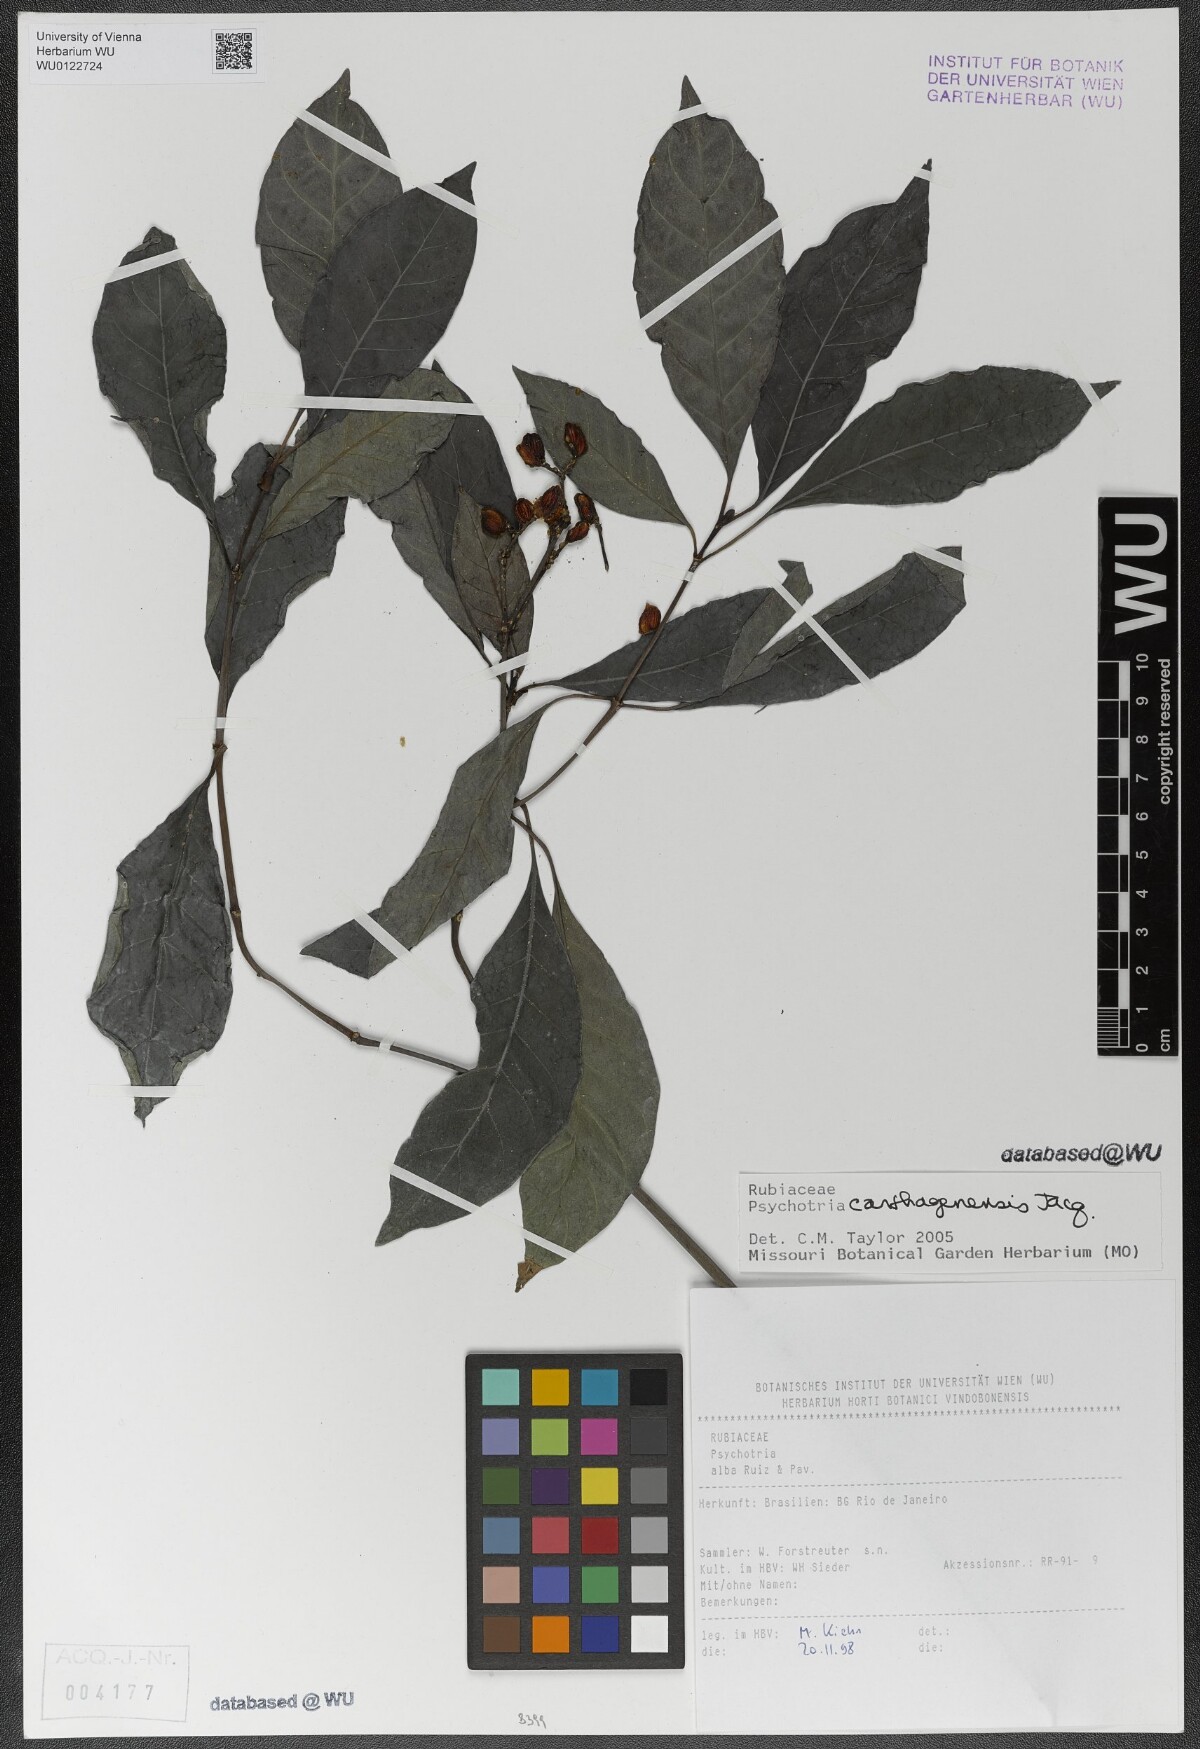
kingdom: Plantae
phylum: Tracheophyta
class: Magnoliopsida
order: Gentianales
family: Rubiaceae
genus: Psychotria
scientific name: Psychotria carthagenensis
